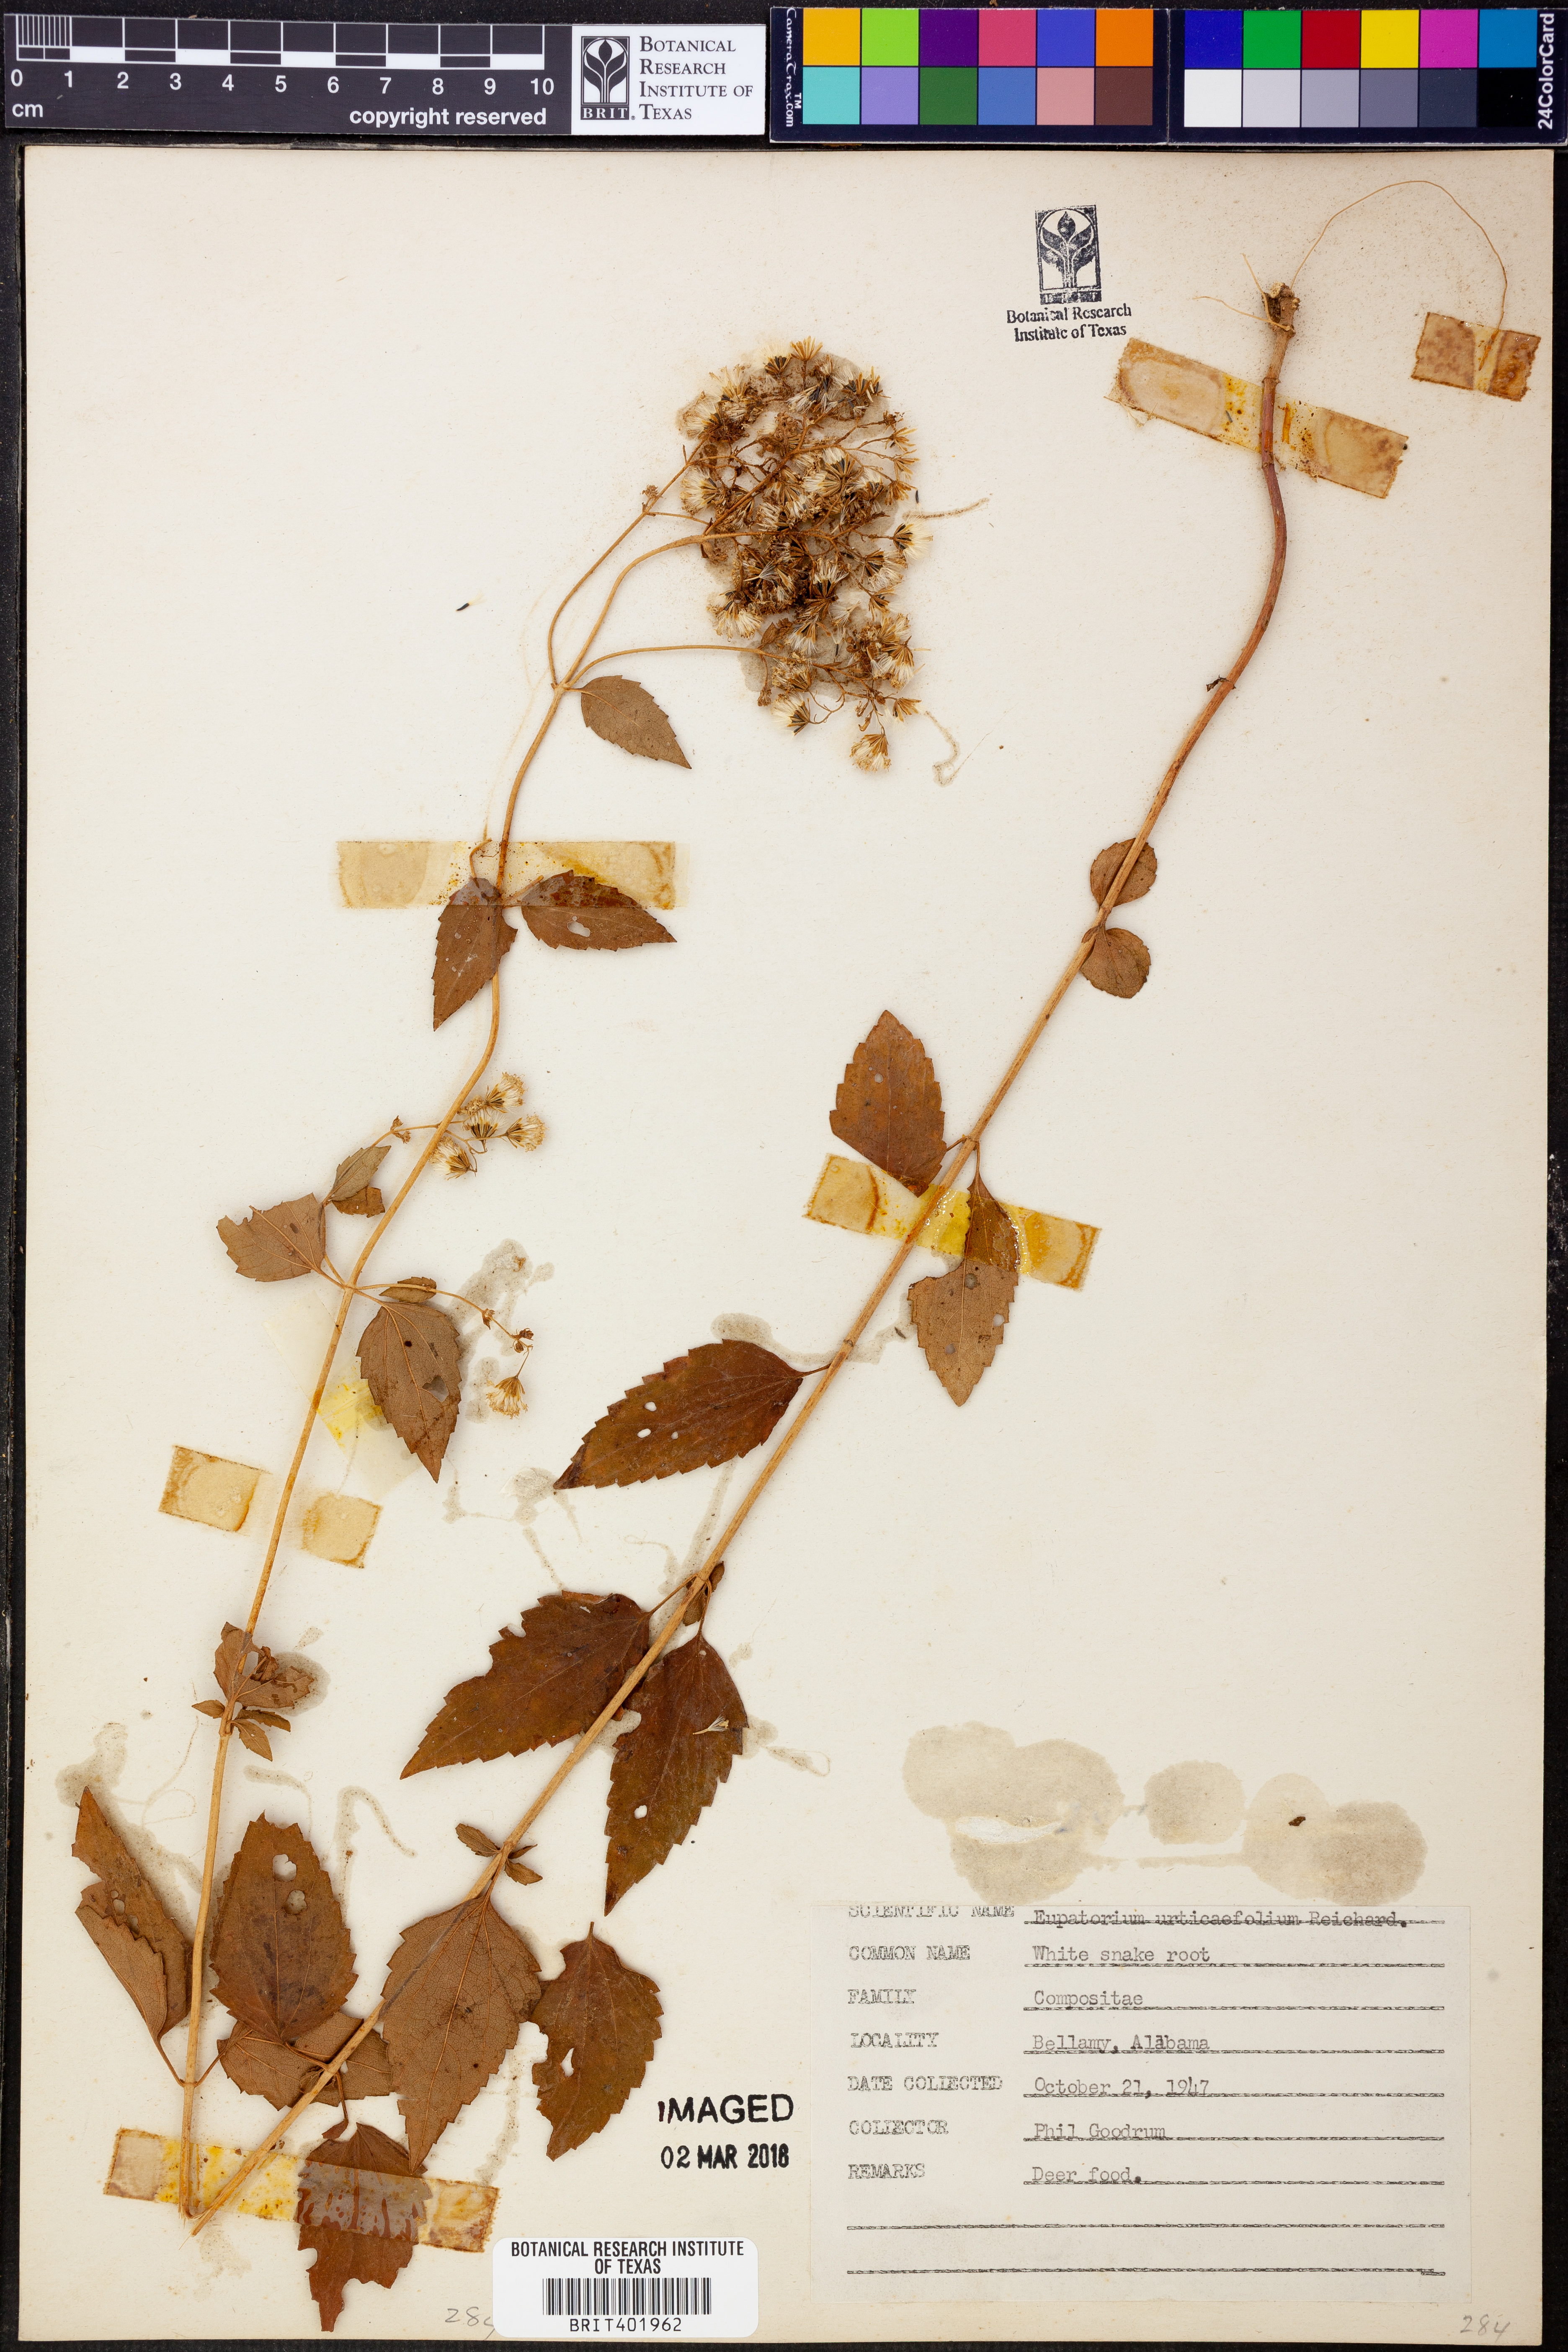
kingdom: Plantae
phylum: Tracheophyta
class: Magnoliopsida
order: Asterales
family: Asteraceae
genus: Ageratina
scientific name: Ageratina altissima
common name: White snakeroot
